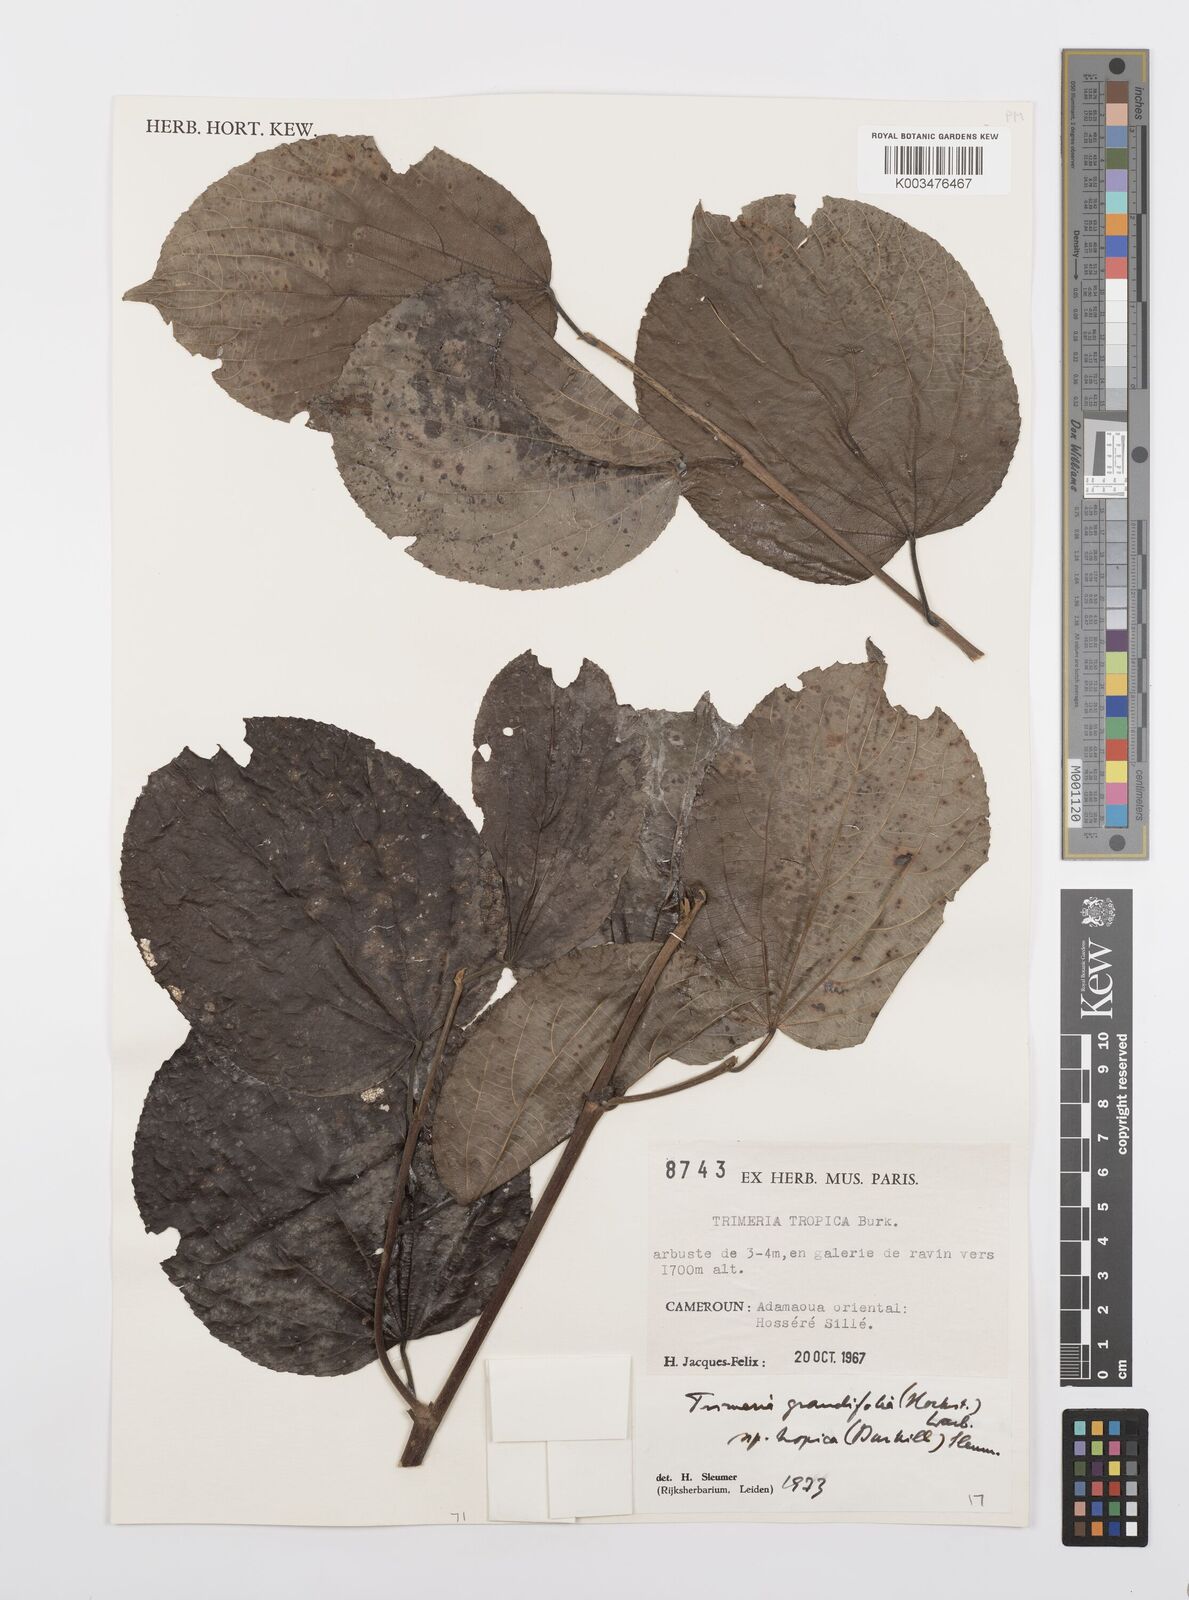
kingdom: Plantae
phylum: Tracheophyta
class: Magnoliopsida
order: Malpighiales
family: Salicaceae
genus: Trimeria
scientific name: Trimeria grandifolia
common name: Wild mulberry
